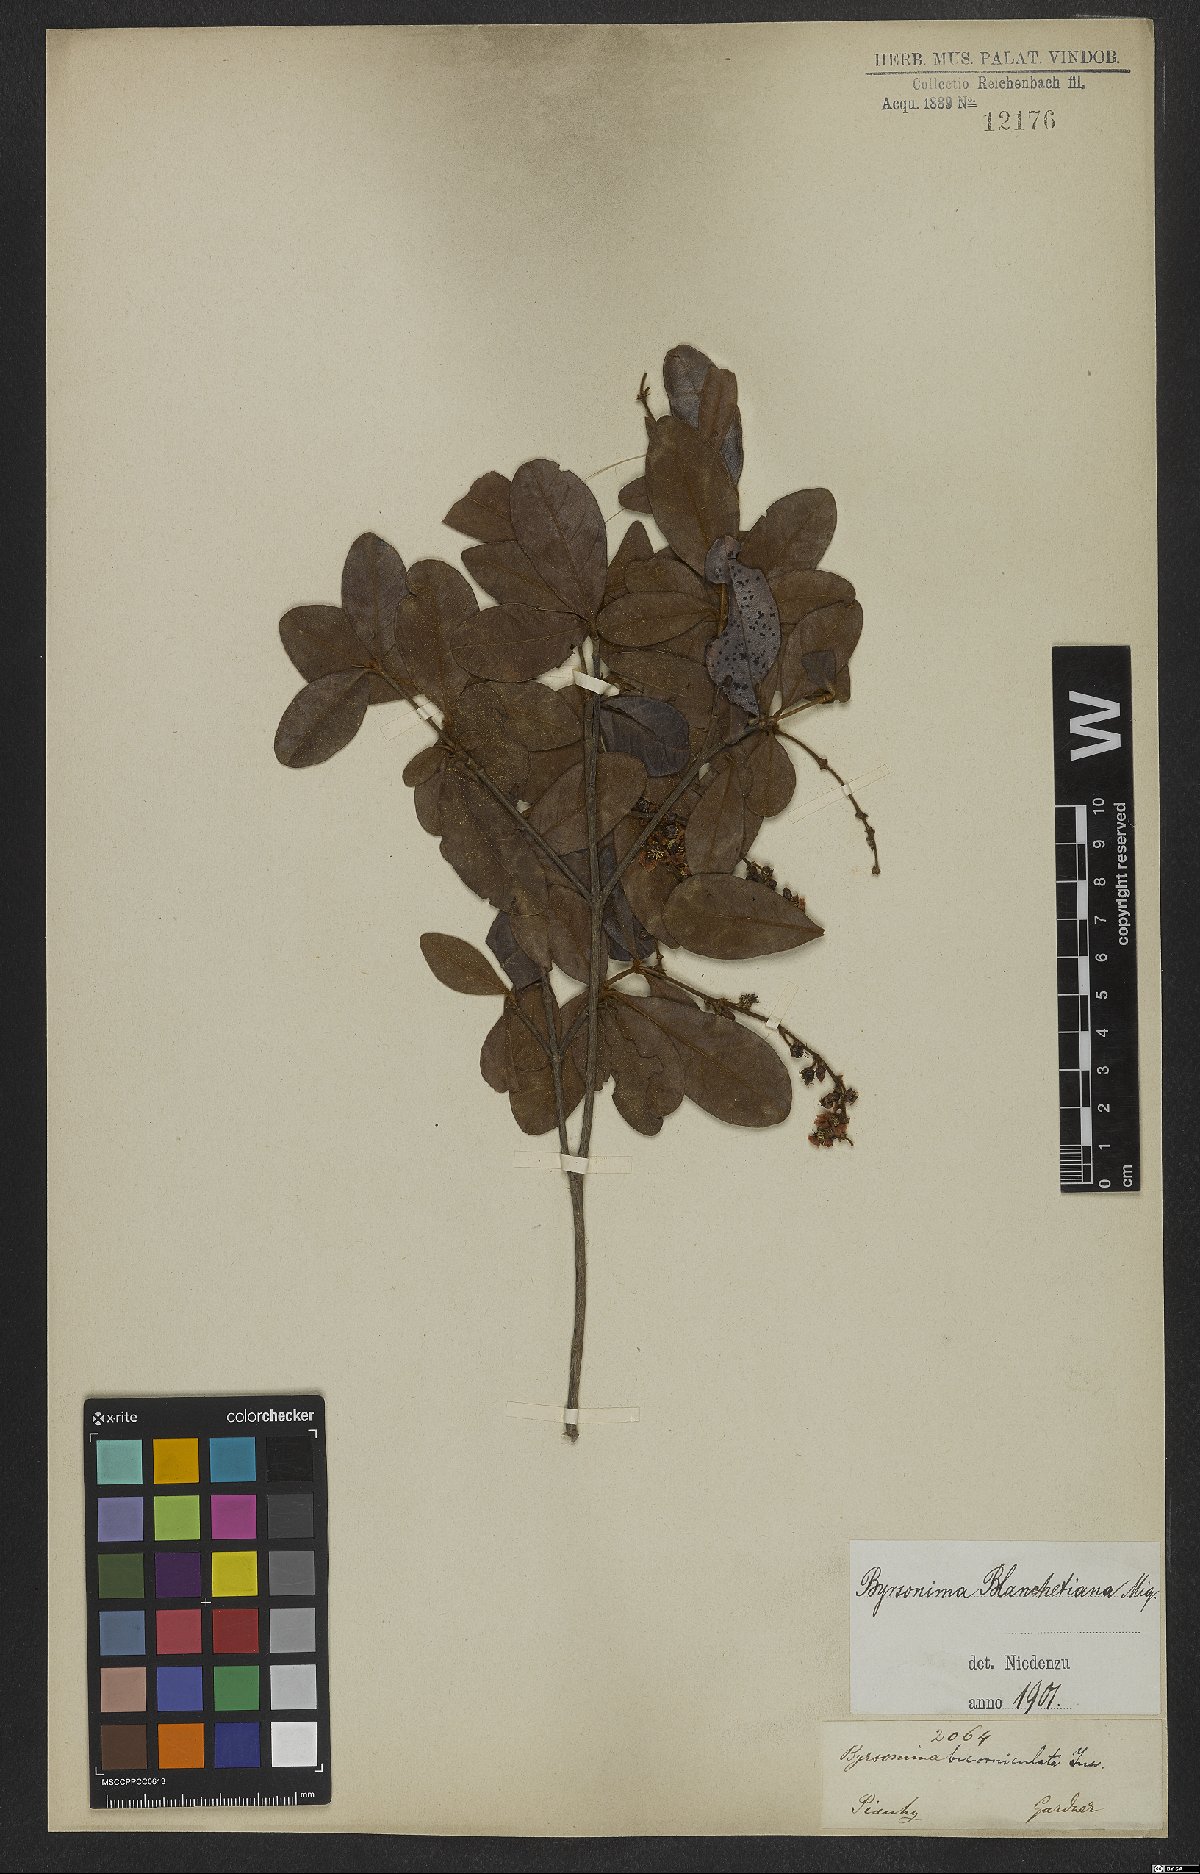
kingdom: Plantae
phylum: Tracheophyta
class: Magnoliopsida
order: Malpighiales
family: Malpighiaceae
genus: Byrsonima
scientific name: Byrsonima bicorniculata
